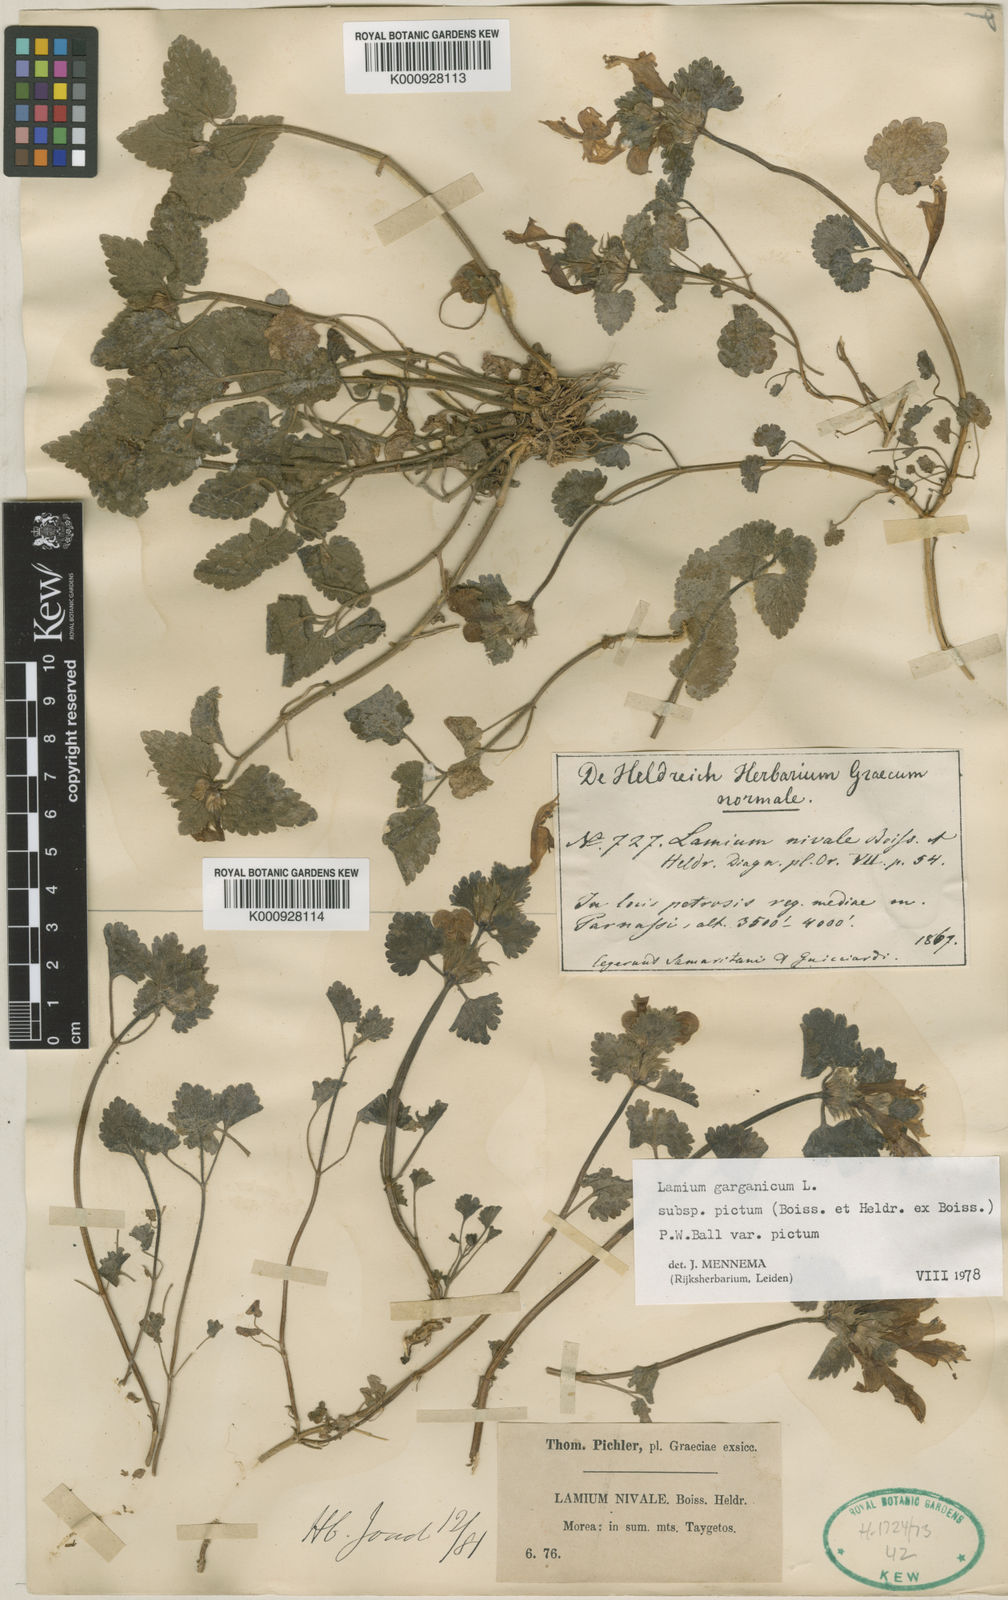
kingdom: Plantae
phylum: Tracheophyta
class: Magnoliopsida
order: Lamiales
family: Lamiaceae
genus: Lamium
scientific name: Lamium garganicum
